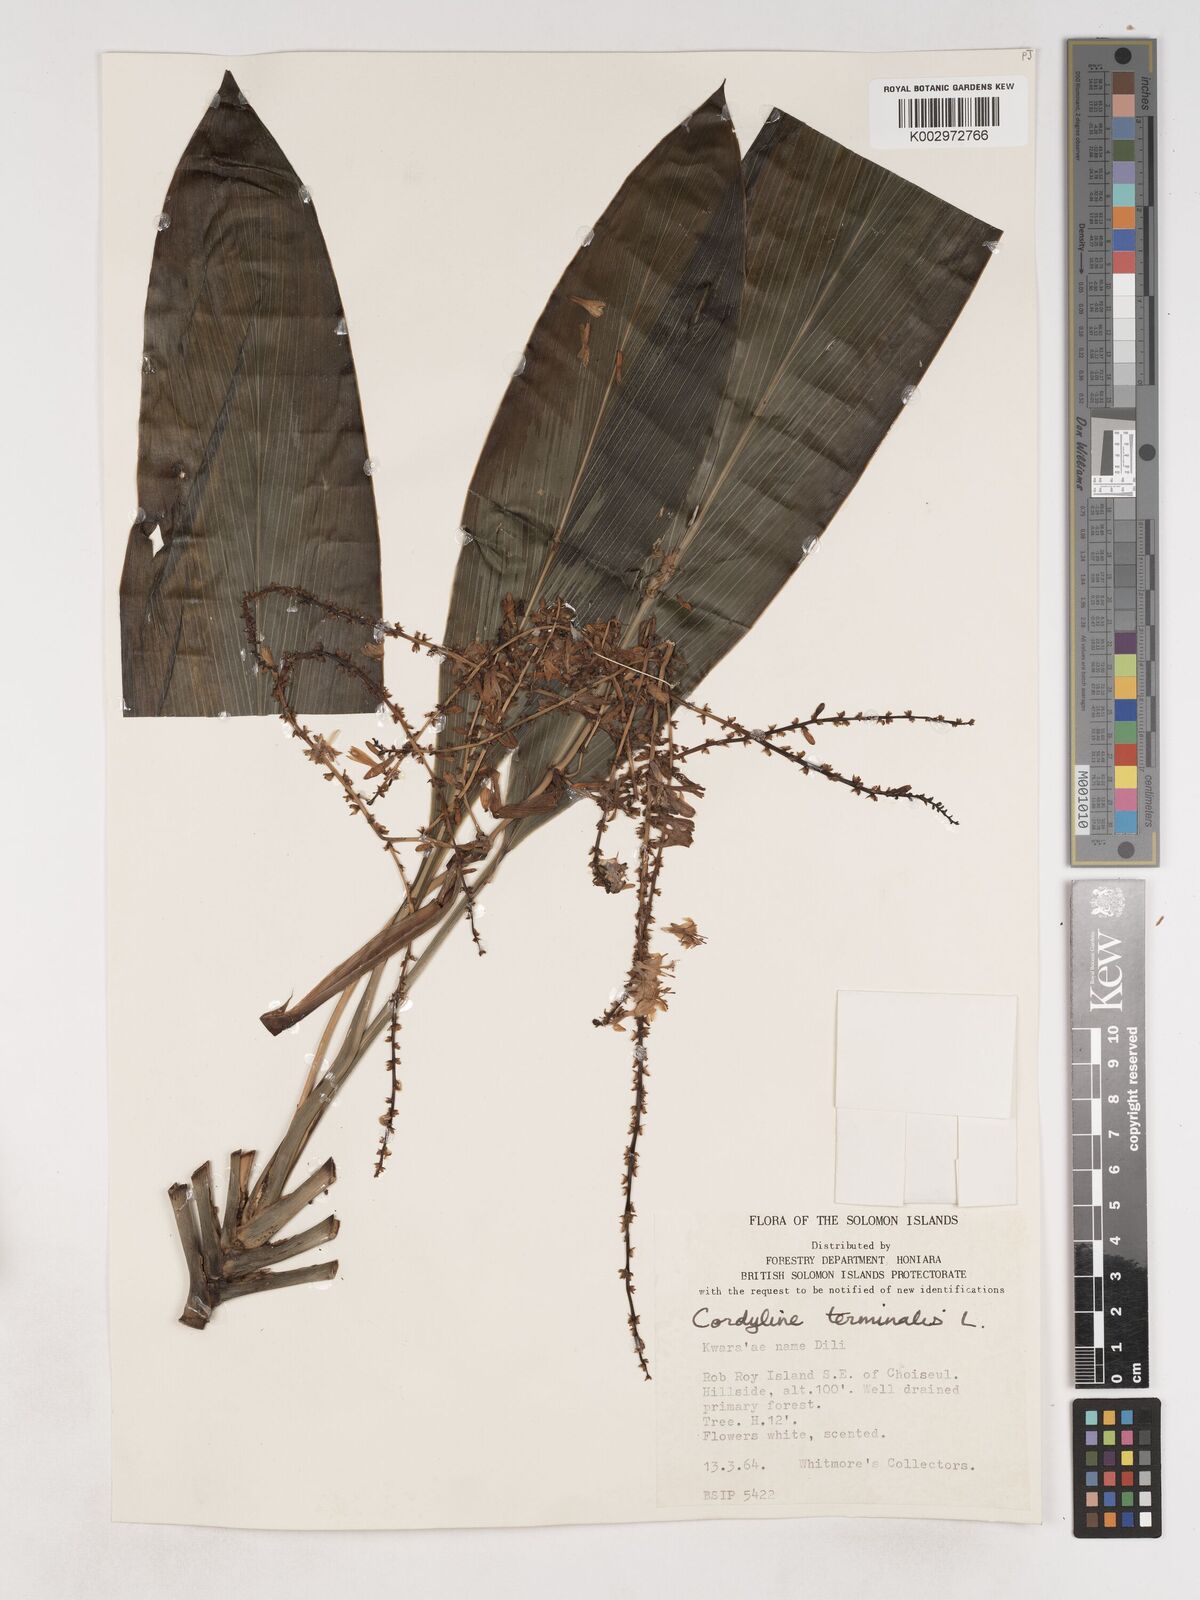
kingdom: Plantae
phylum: Tracheophyta
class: Liliopsida
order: Asparagales
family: Asparagaceae
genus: Cordyline
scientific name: Cordyline fruticosa
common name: Good-luck-plant
